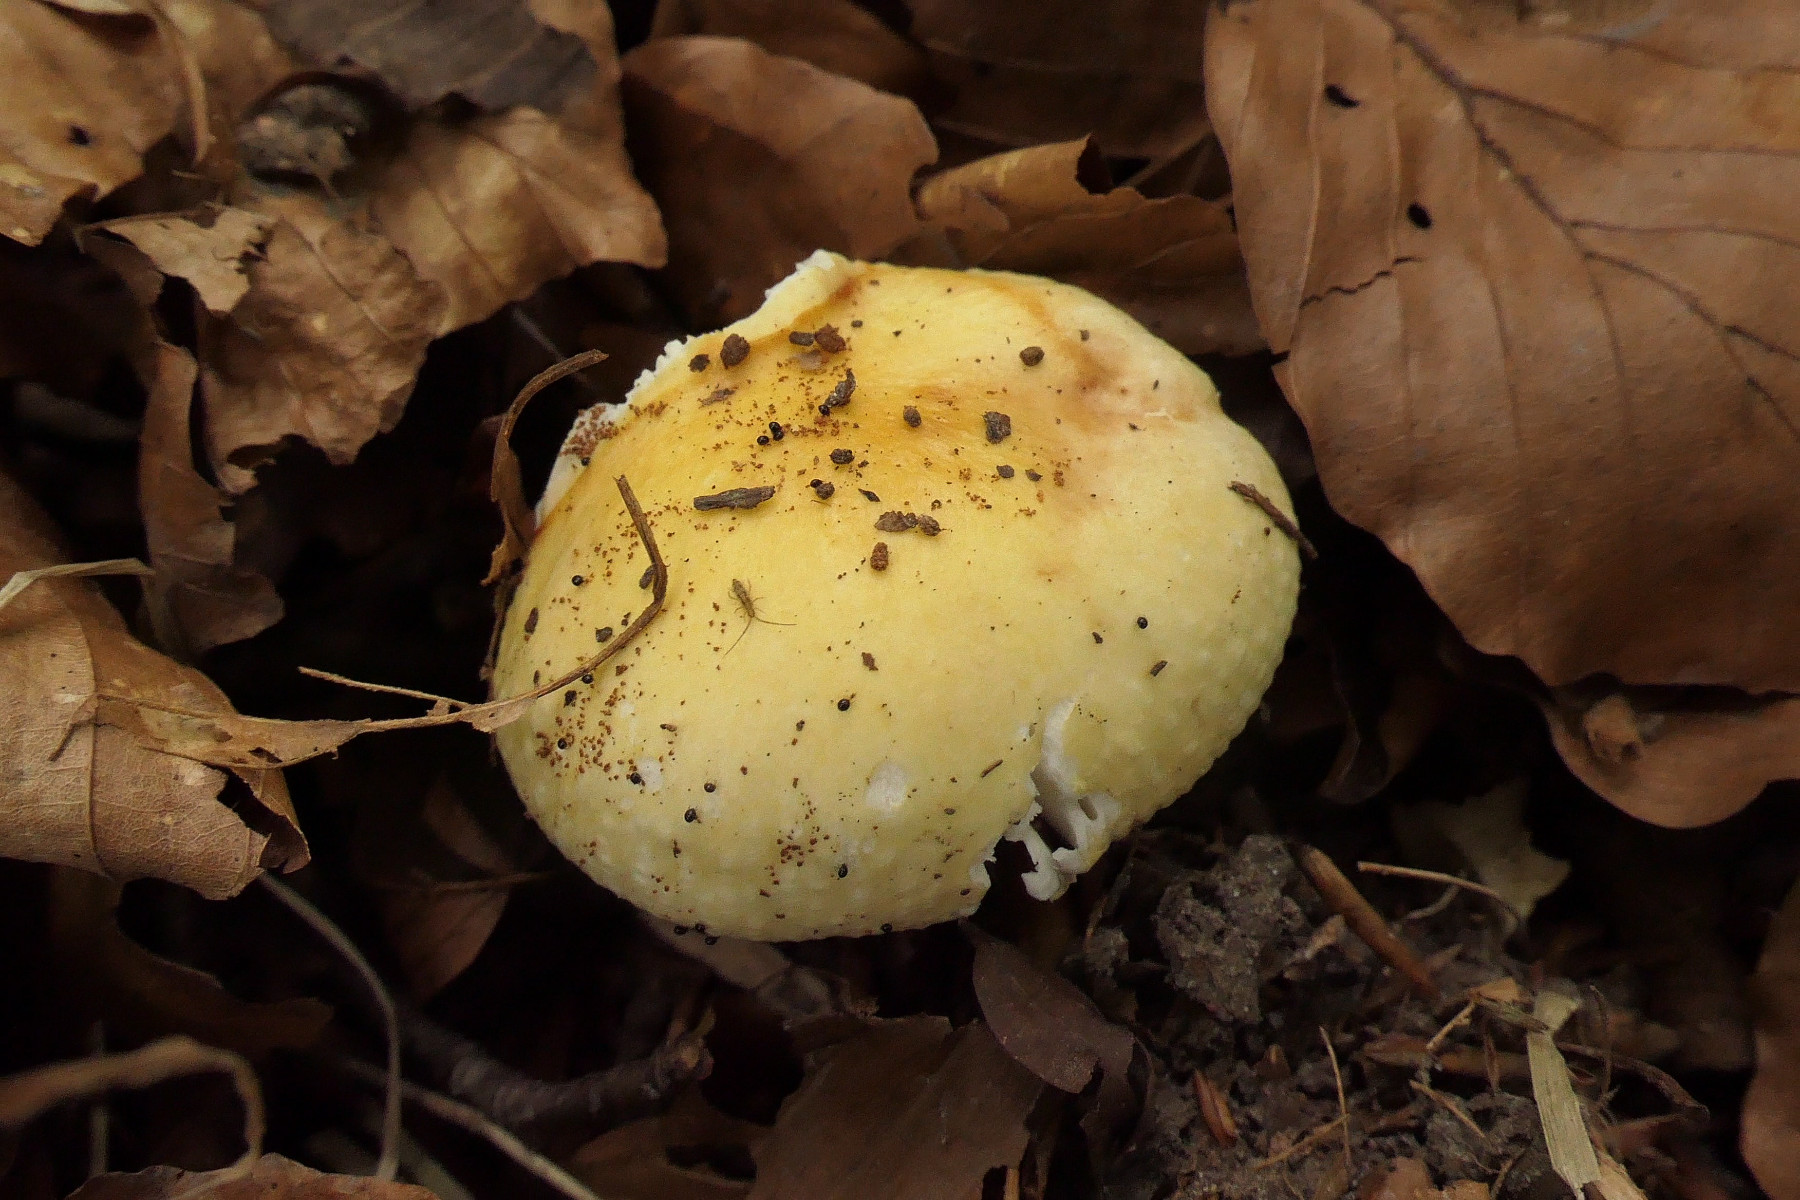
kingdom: Fungi
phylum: Basidiomycota
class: Agaricomycetes
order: Russulales
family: Russulaceae
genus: Russula
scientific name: Russula solaris
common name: sol-skørhat
